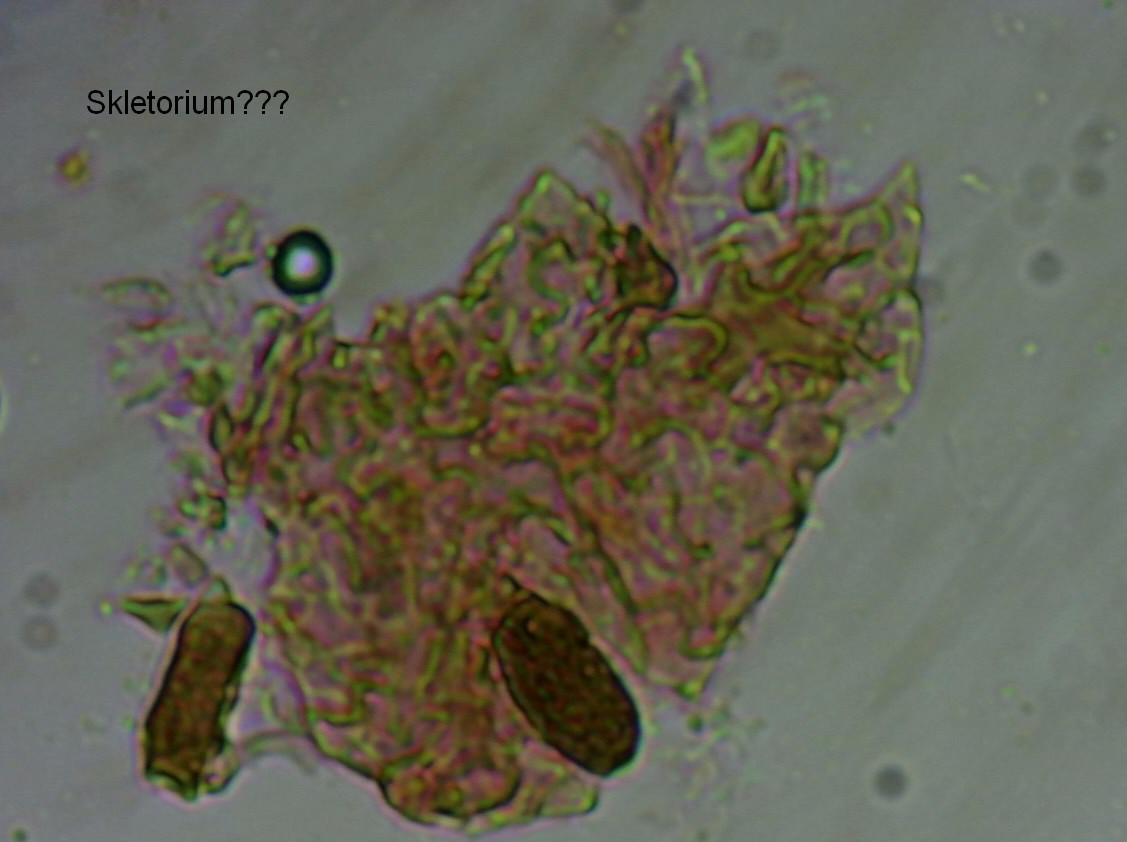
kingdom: Fungi
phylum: Basidiomycota
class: Agaricomycetes
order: Agaricales
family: Typhulaceae
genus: Typhula
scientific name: Typhula setipes
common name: liden trådkølle
